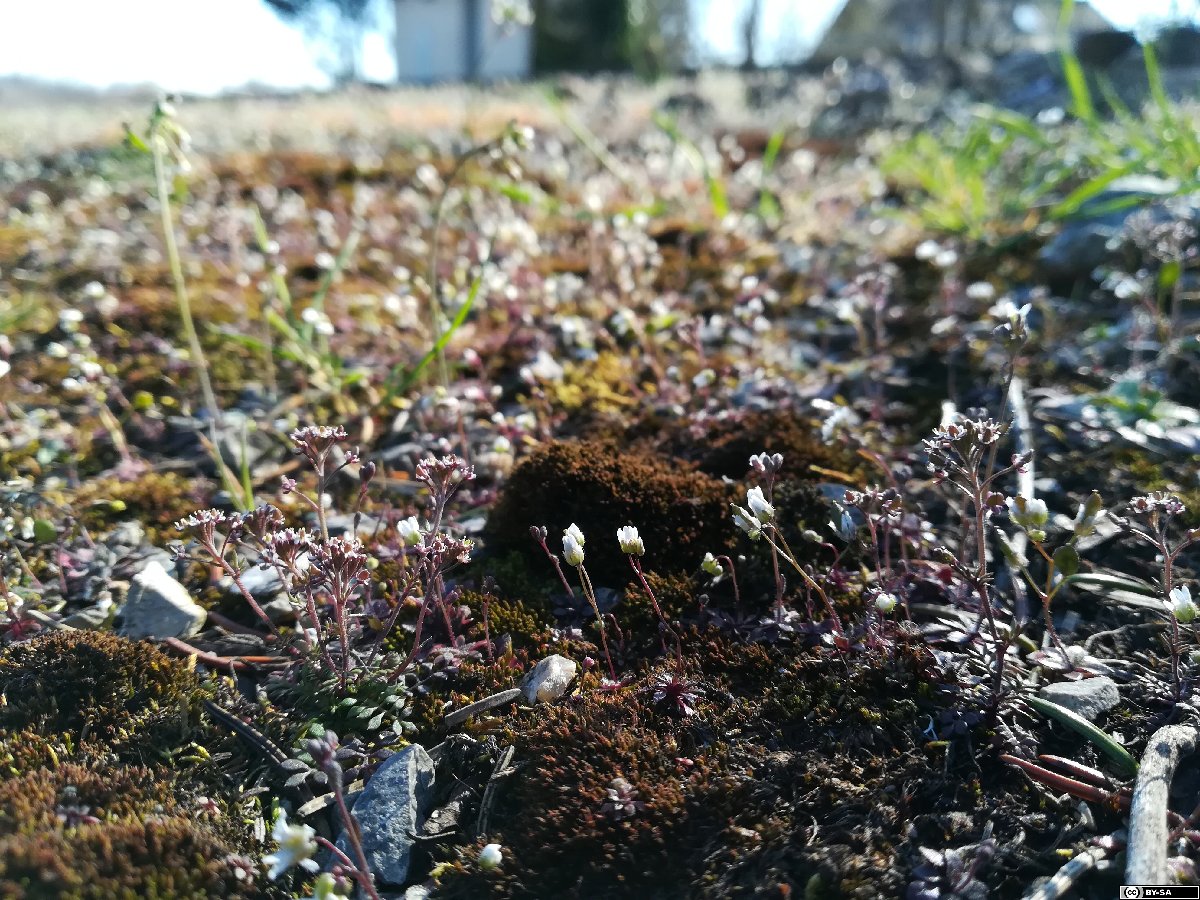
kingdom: Plantae
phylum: Tracheophyta
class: Magnoliopsida
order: Brassicales
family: Brassicaceae
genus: Hornungia
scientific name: Hornungia petraea
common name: Hutchinsia
